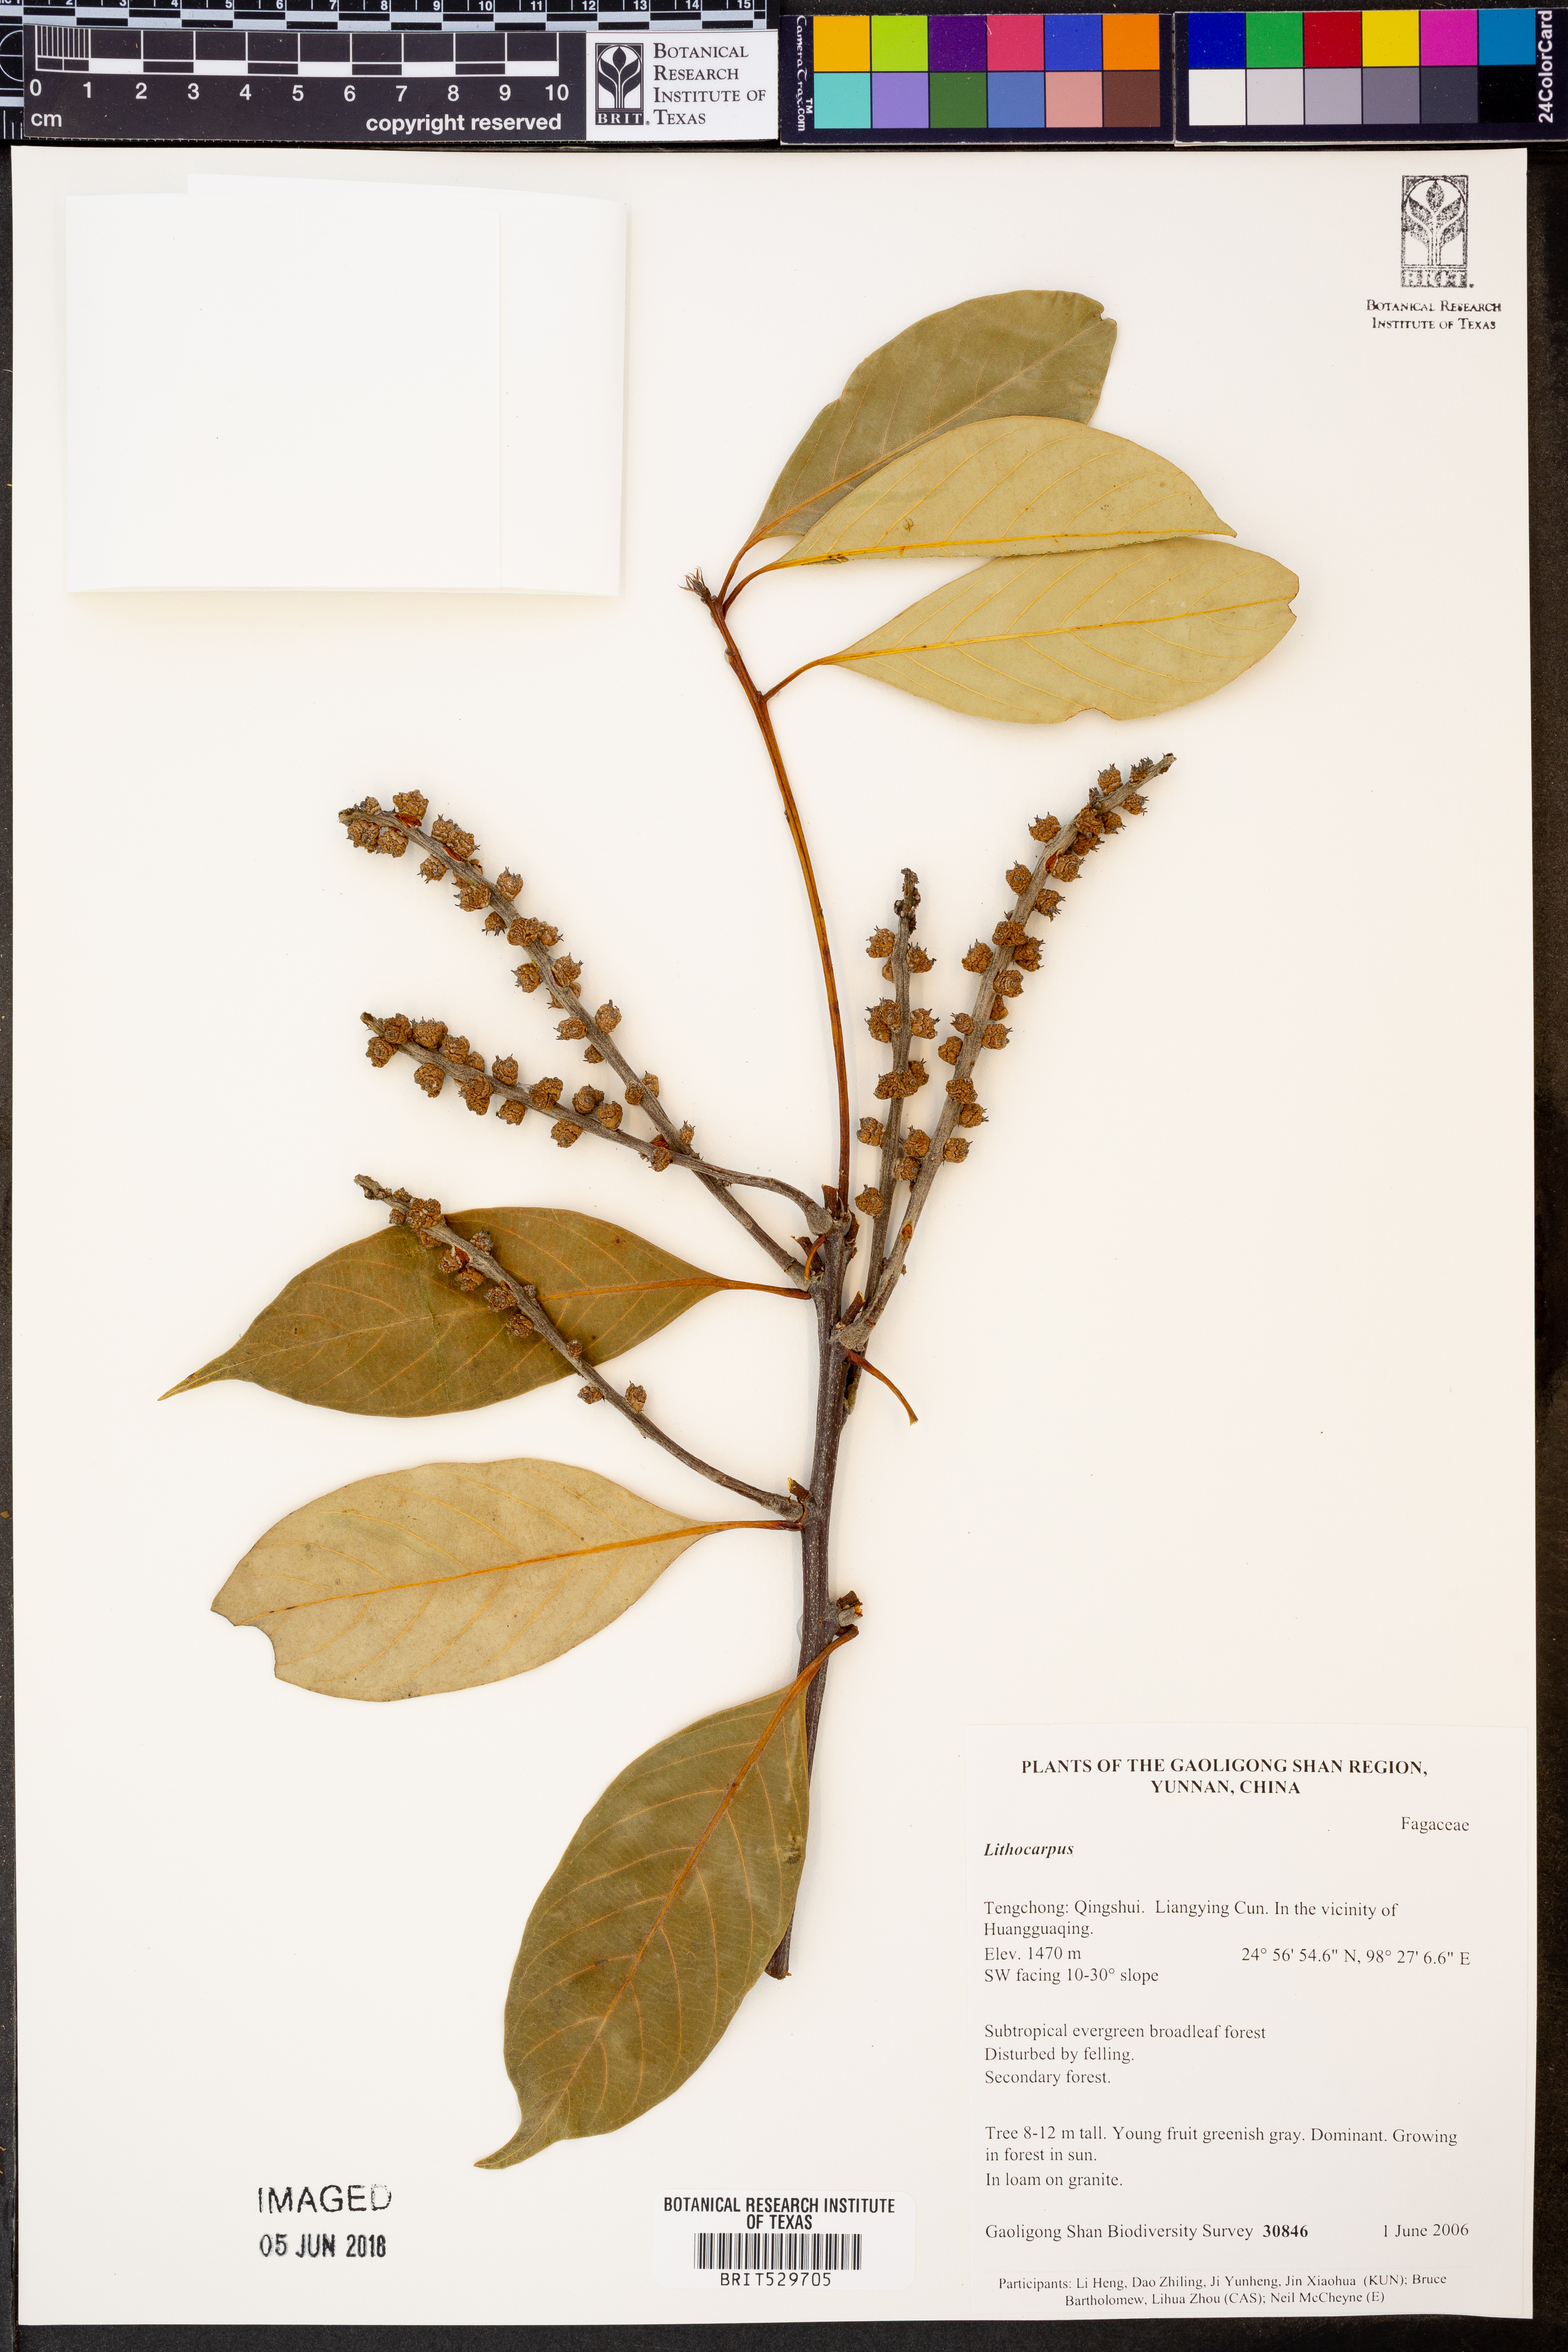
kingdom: Plantae
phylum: Tracheophyta
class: Magnoliopsida
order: Fagales
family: Fagaceae
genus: Lithocarpus
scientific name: Lithocarpus
